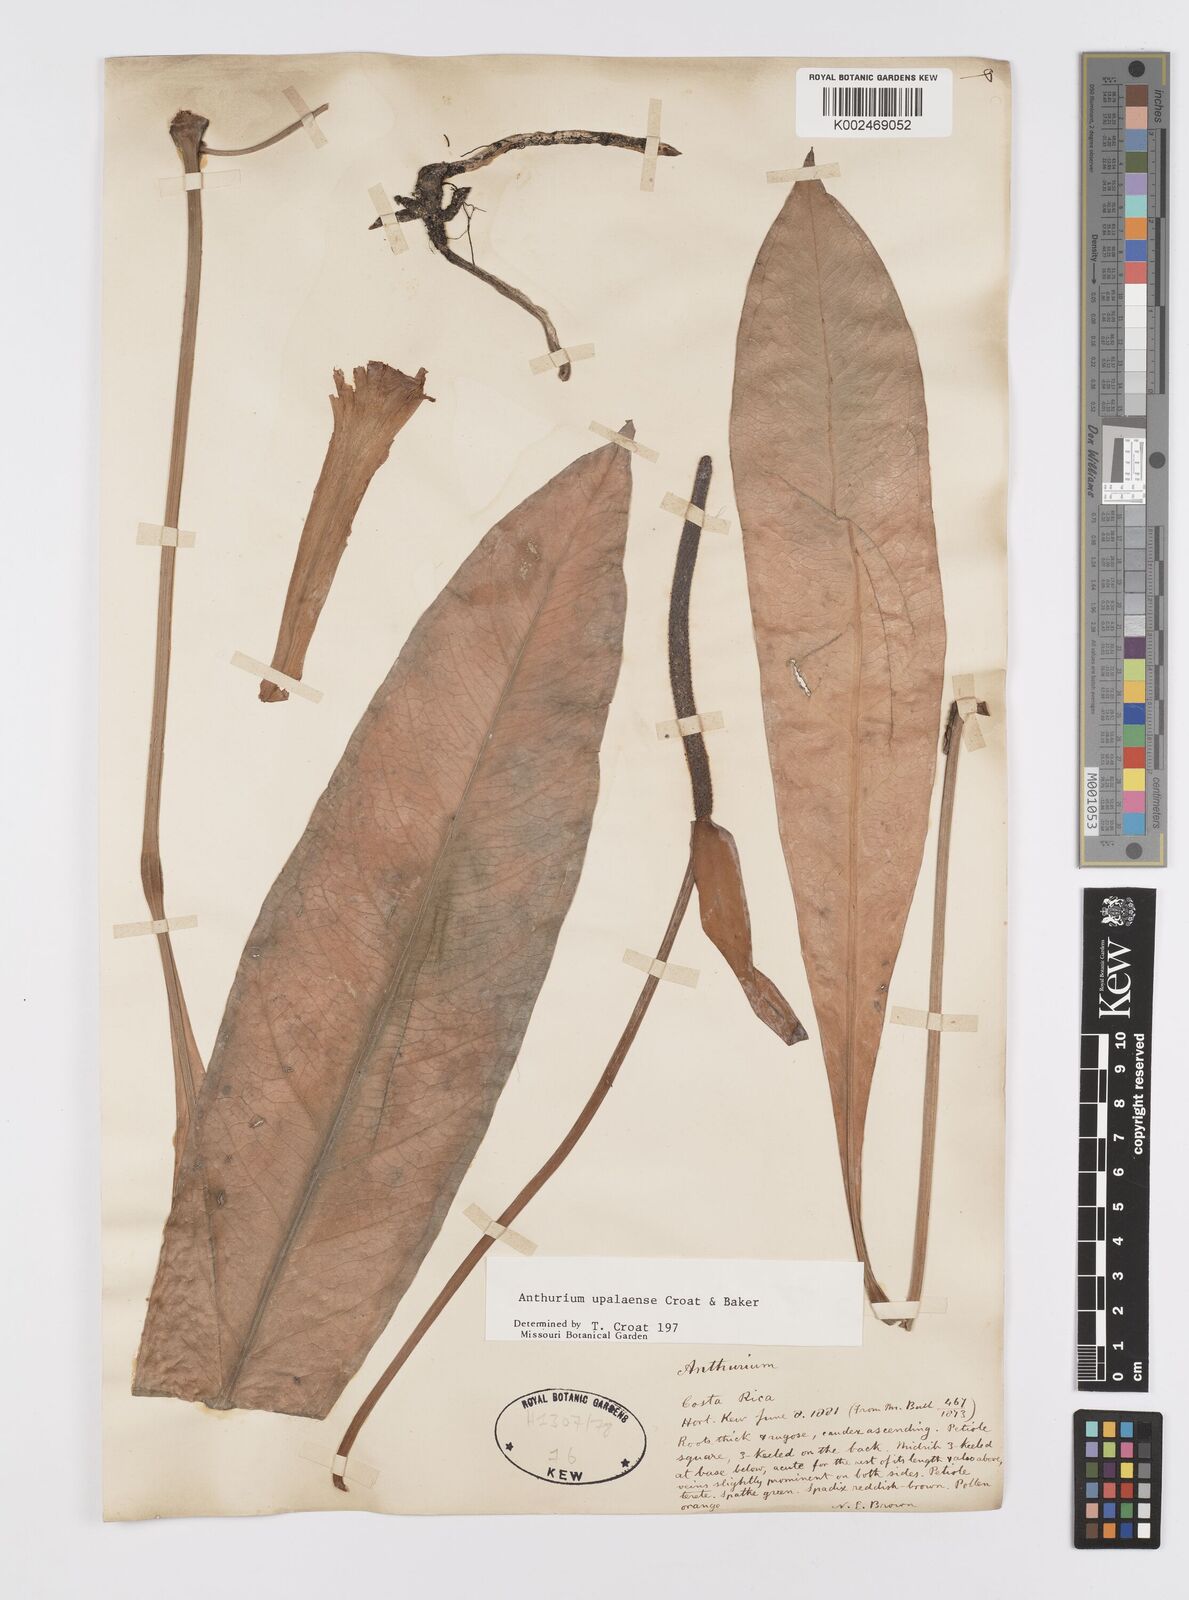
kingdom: Plantae
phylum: Tracheophyta
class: Liliopsida
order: Alismatales
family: Araceae
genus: Anthurium
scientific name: Anthurium upalaense
